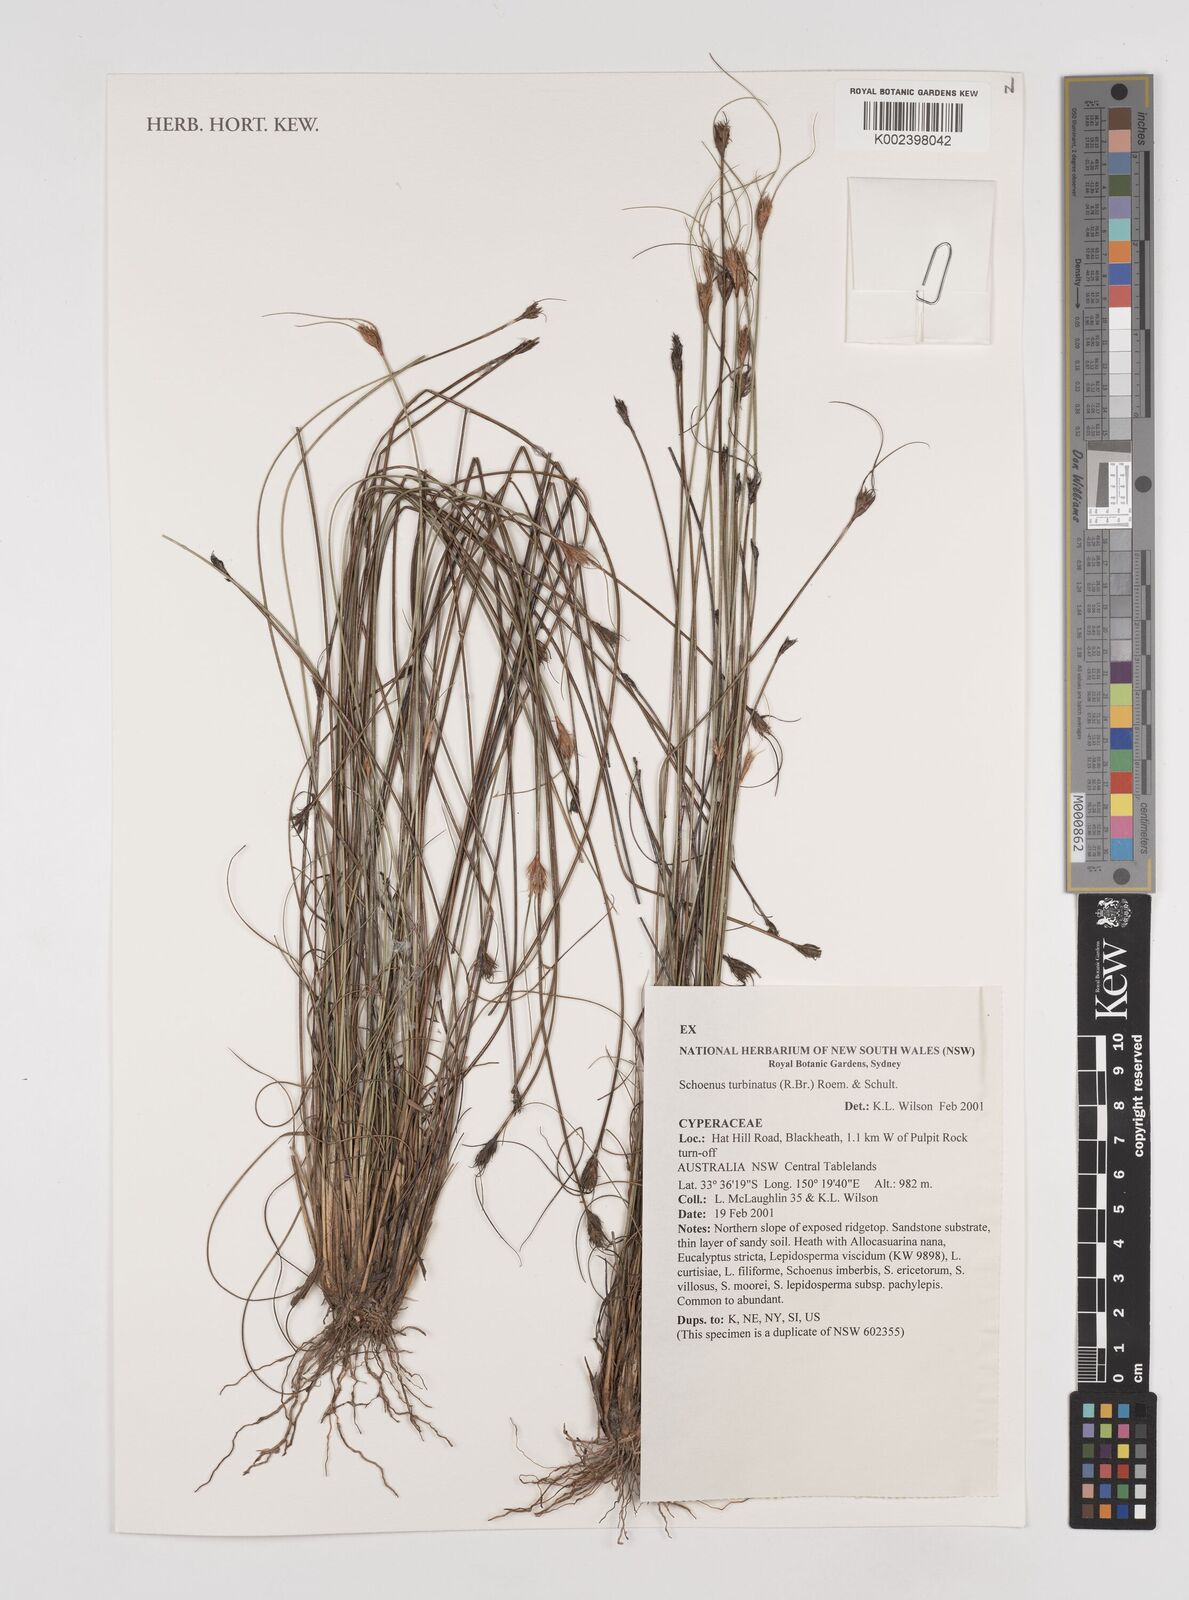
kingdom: Plantae
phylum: Tracheophyta
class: Liliopsida
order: Poales
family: Cyperaceae
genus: Schoenus
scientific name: Schoenus turbinatus
